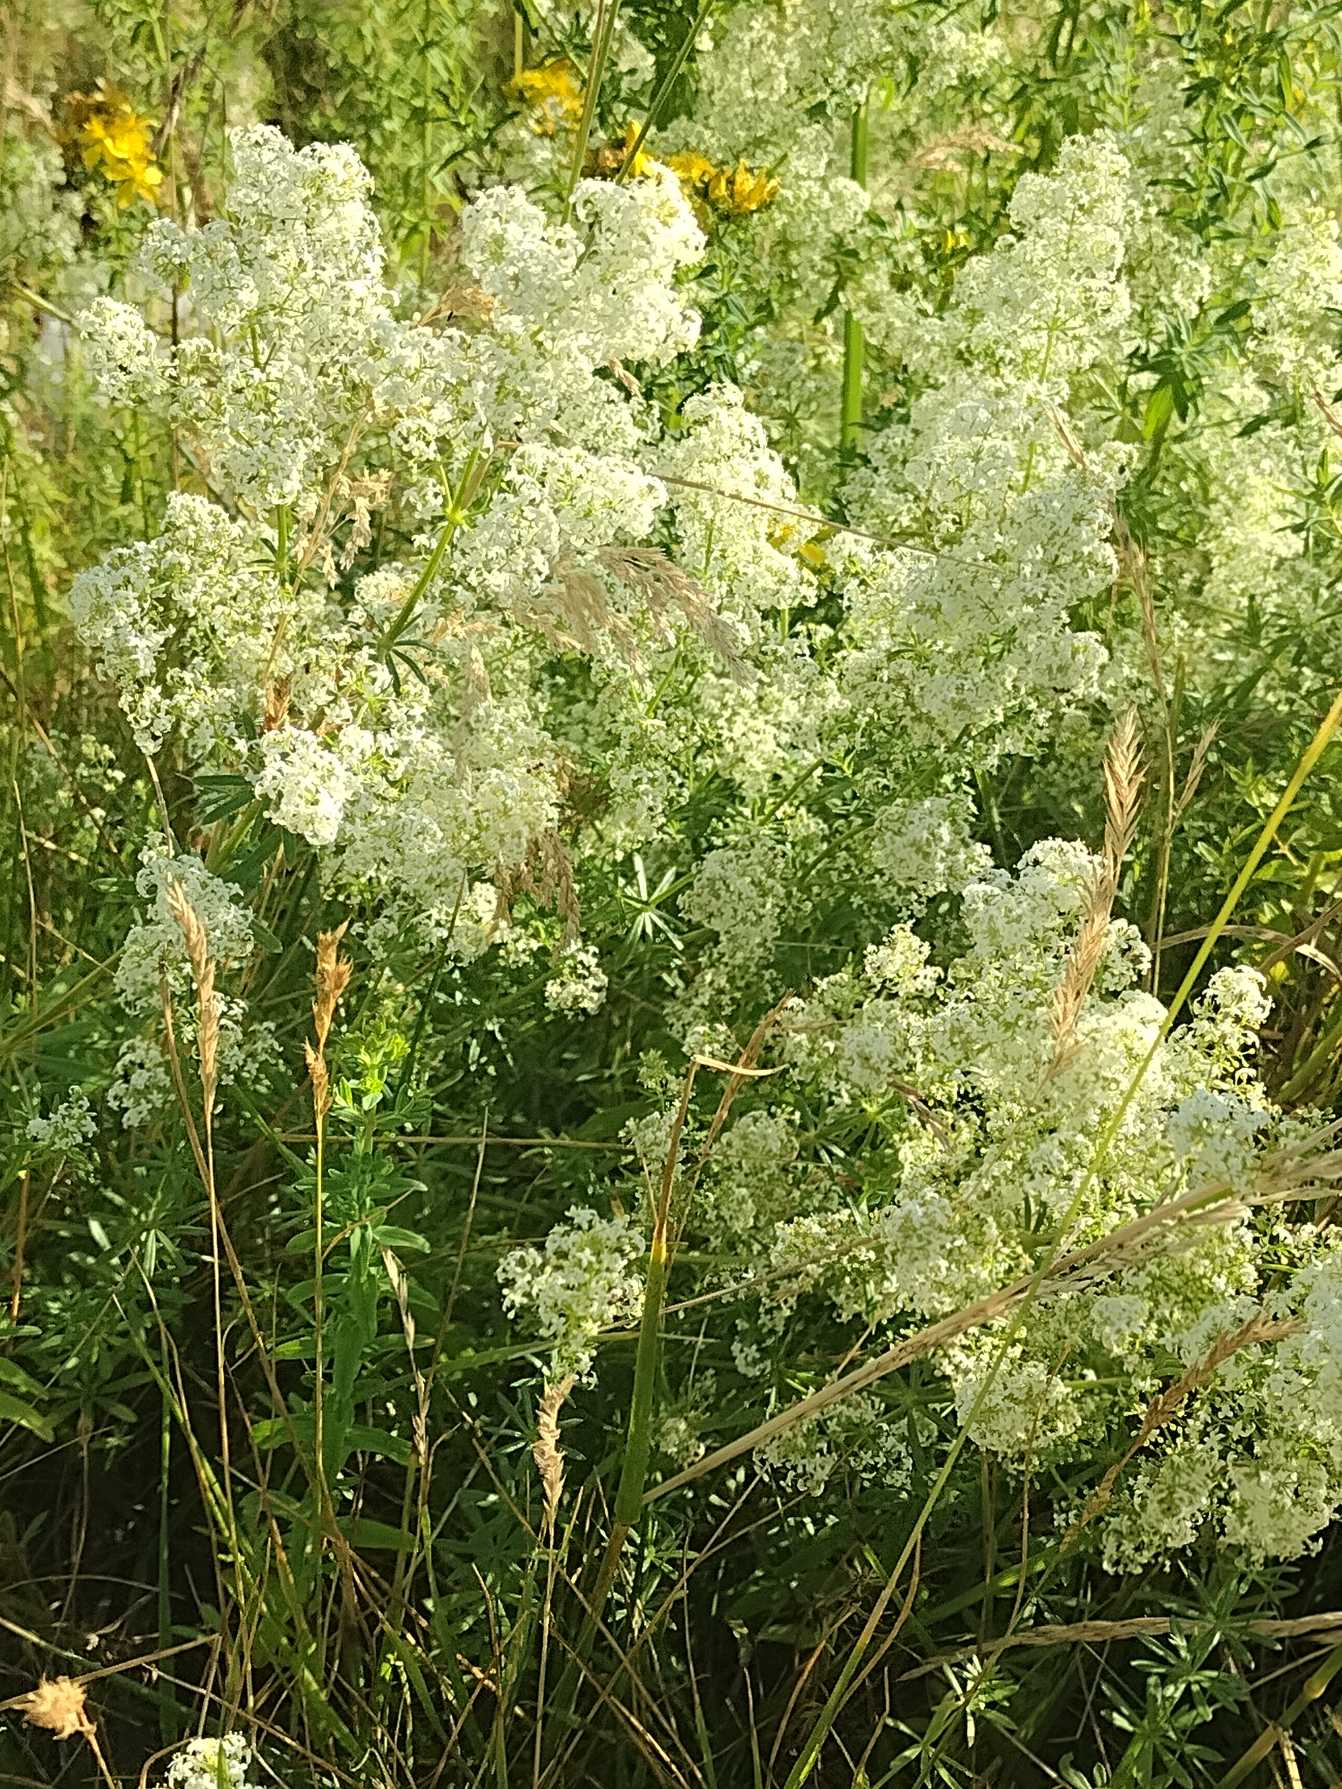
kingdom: Plantae
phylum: Tracheophyta
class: Magnoliopsida
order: Gentianales
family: Rubiaceae
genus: Galium
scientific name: Galium mollugo
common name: Hvid snerre
